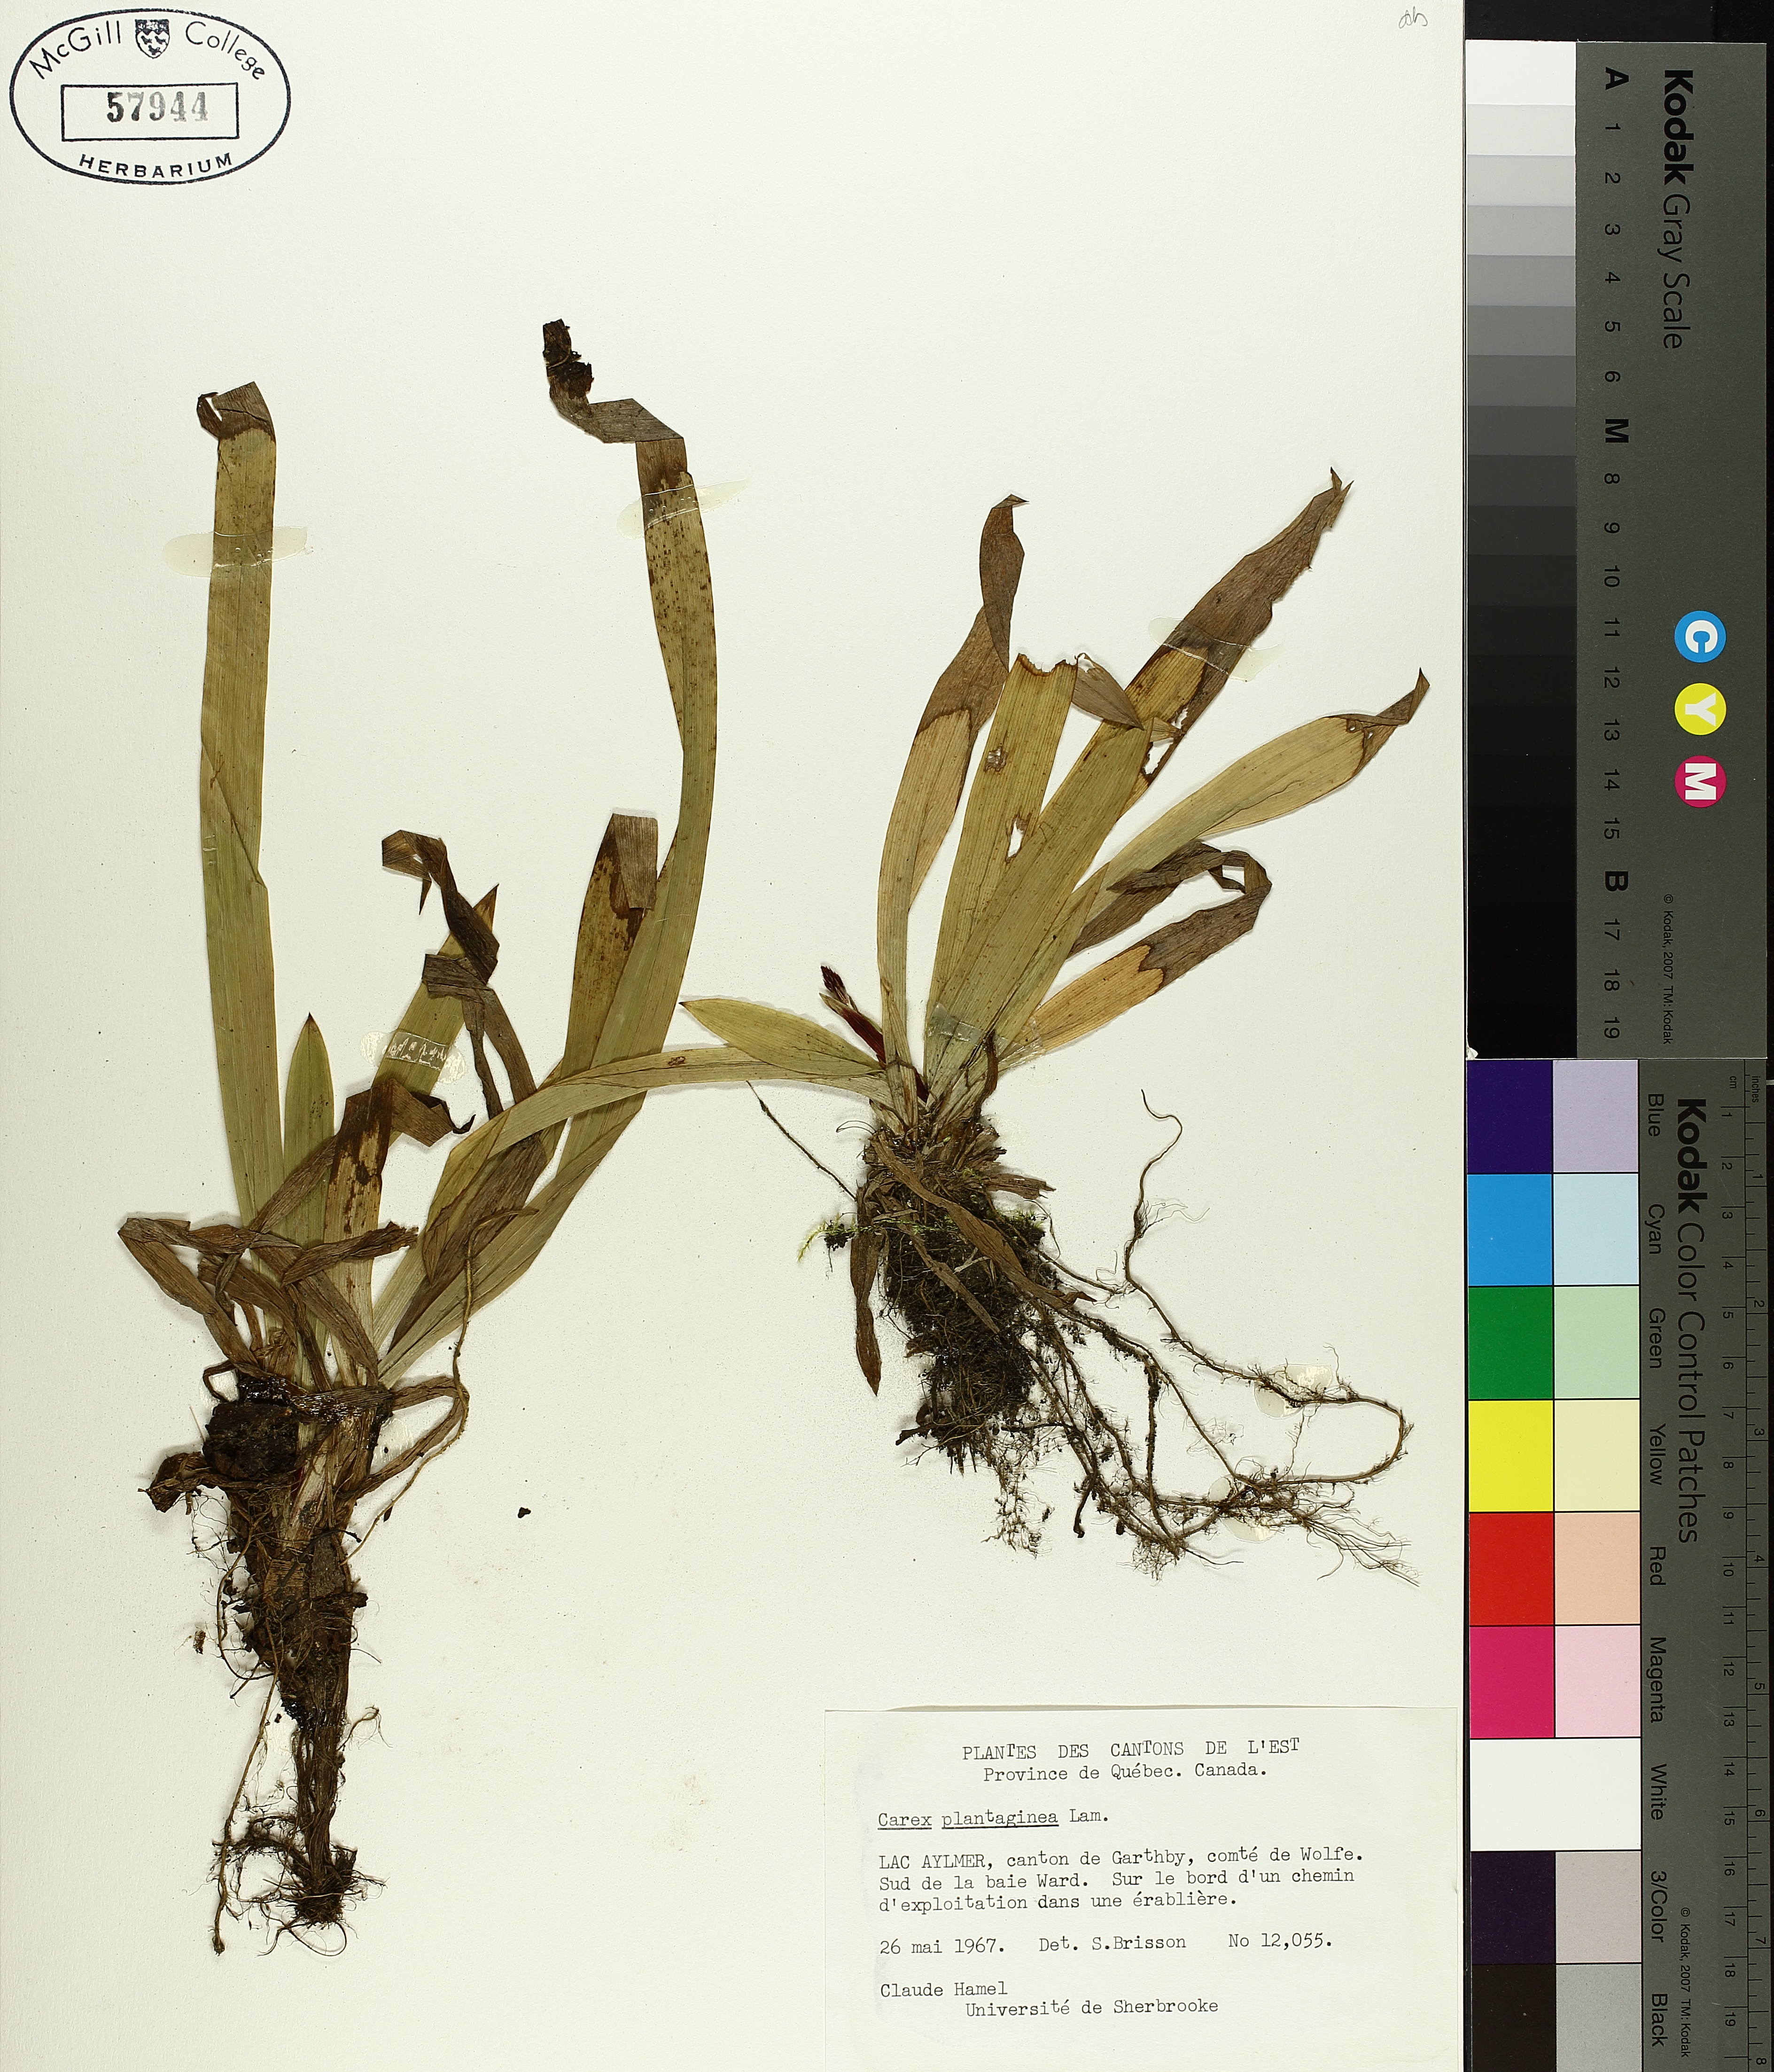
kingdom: Plantae
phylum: Tracheophyta
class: Liliopsida
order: Poales
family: Cyperaceae
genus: Carex
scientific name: Carex plantaginea
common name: Plantain-leaved sedge
